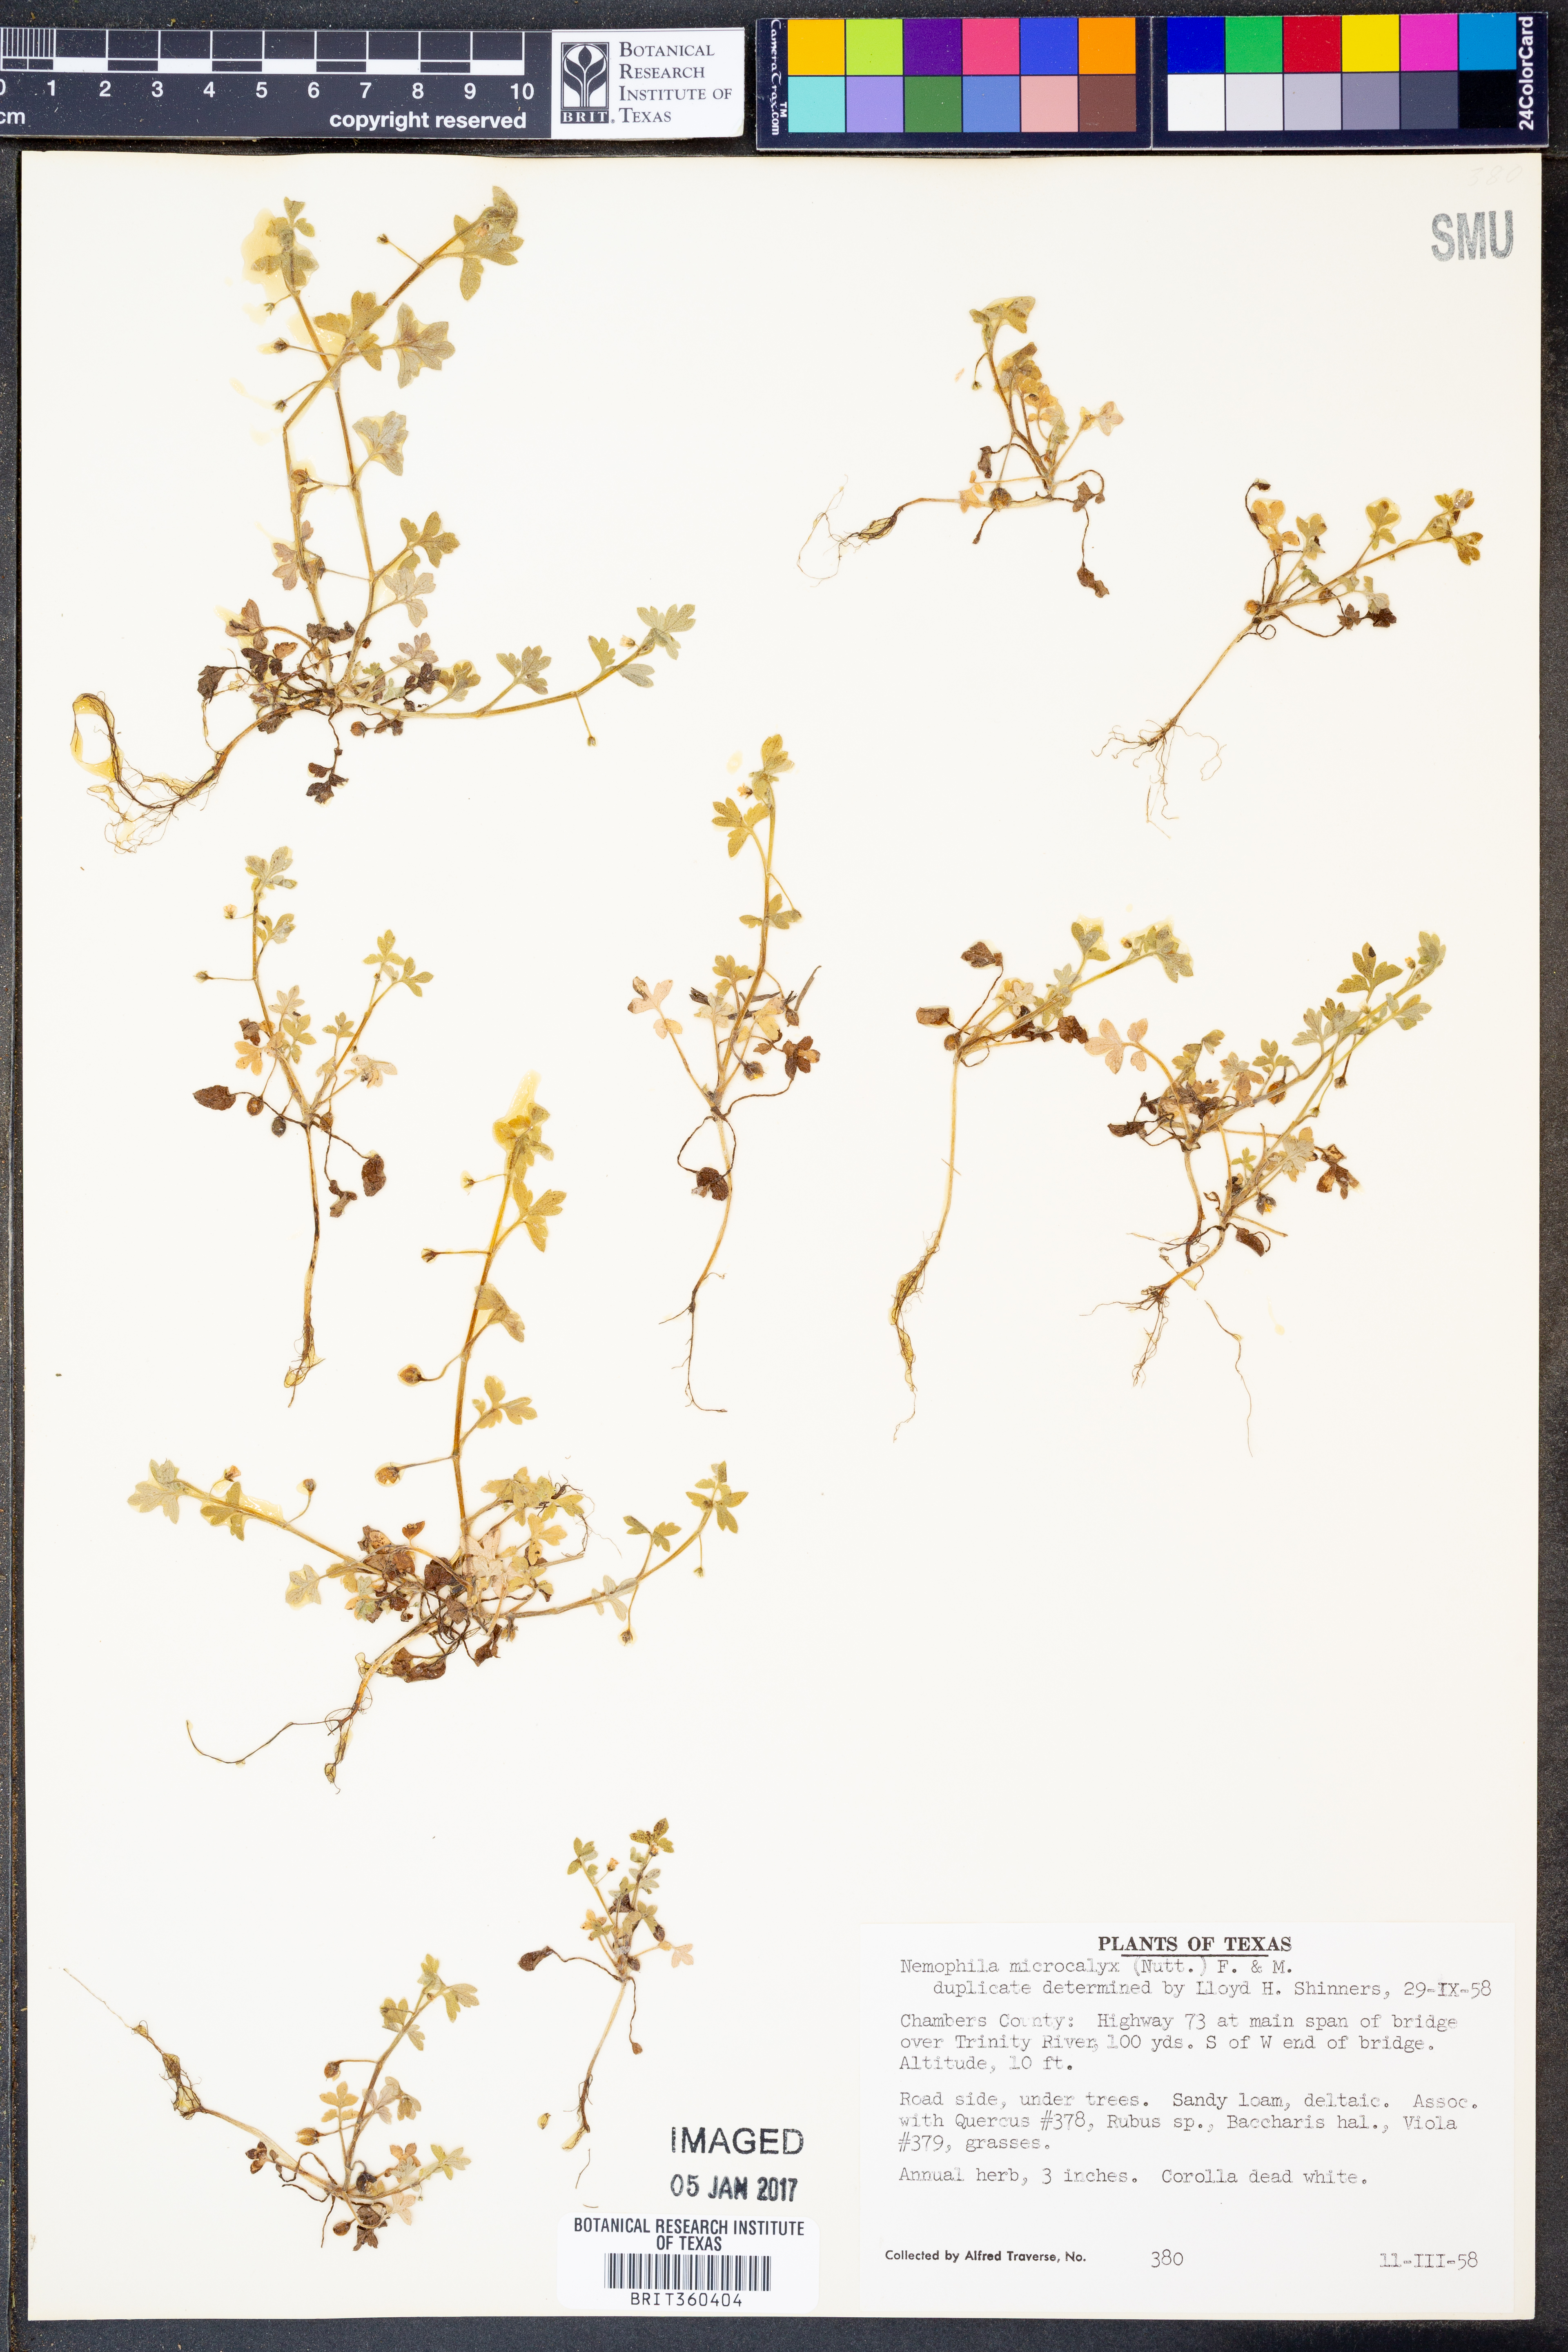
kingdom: Plantae
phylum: Tracheophyta
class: Magnoliopsida
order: Boraginales
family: Hydrophyllaceae
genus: Nemophila
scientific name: Nemophila aphylla
